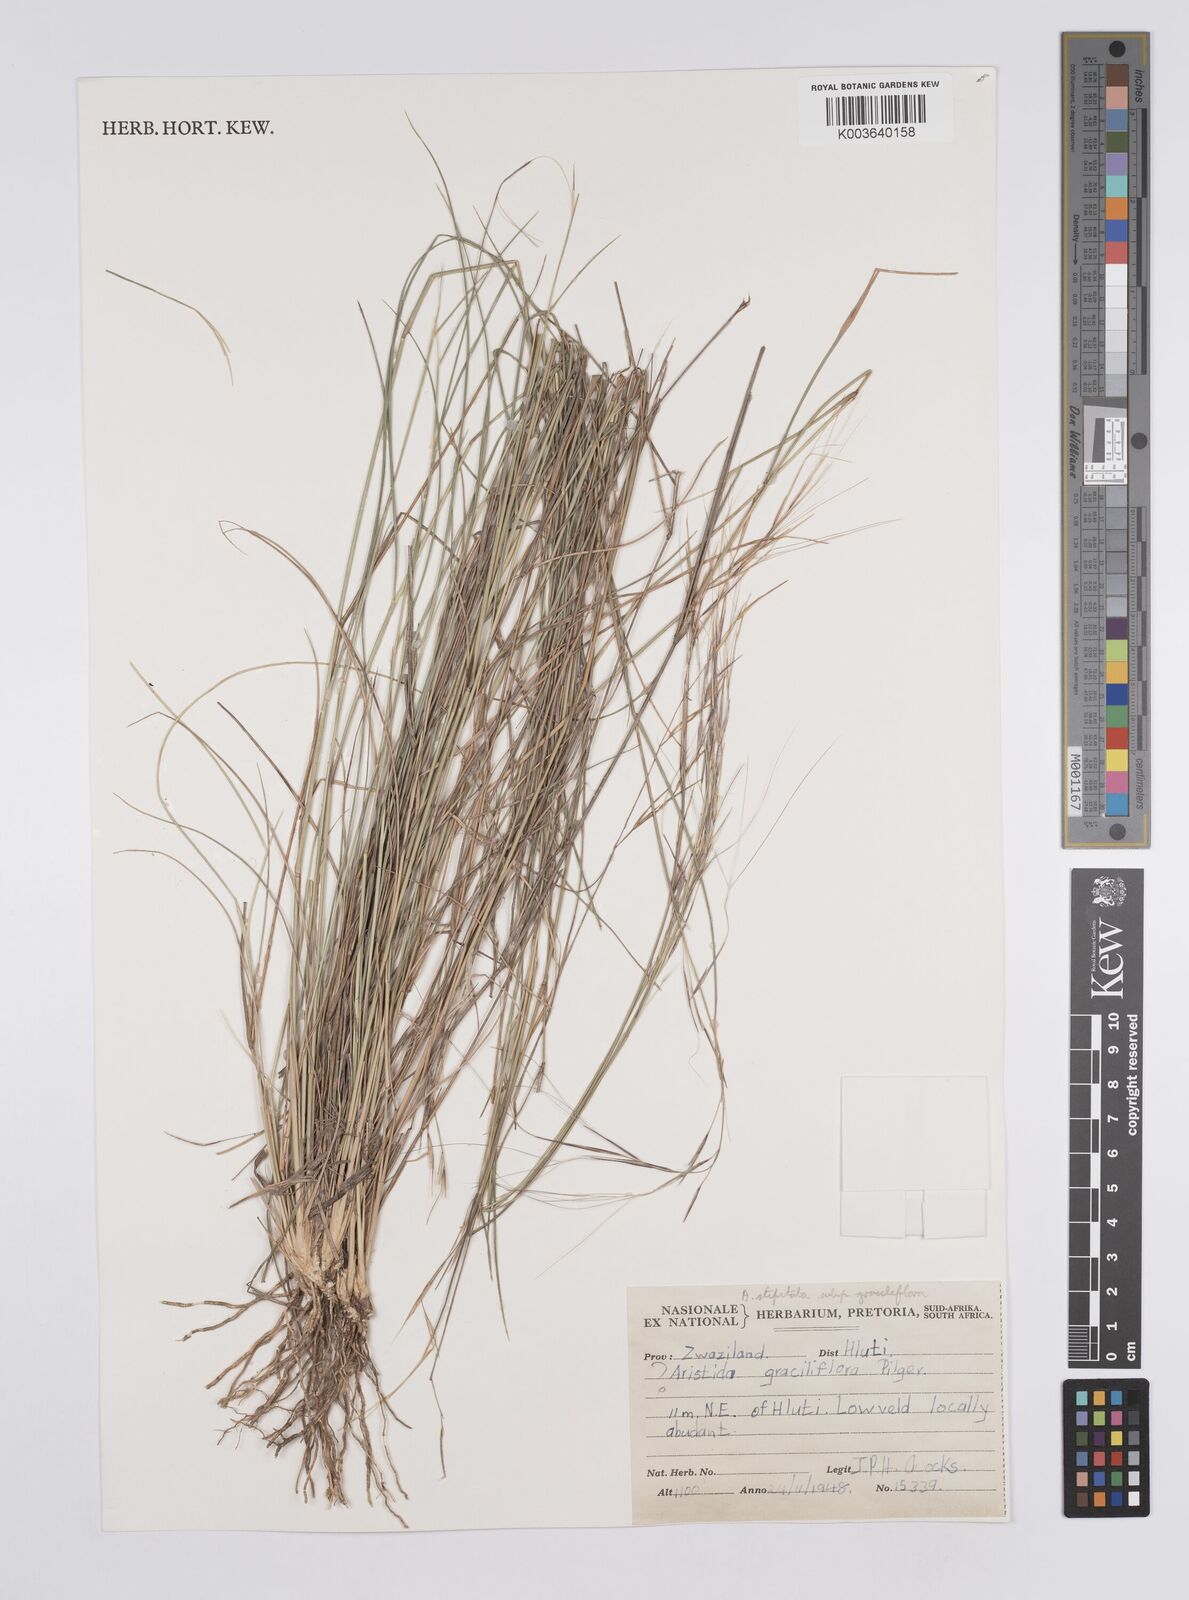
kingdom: Plantae
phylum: Tracheophyta
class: Liliopsida
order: Poales
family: Poaceae
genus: Aristida
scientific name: Aristida stipitata
